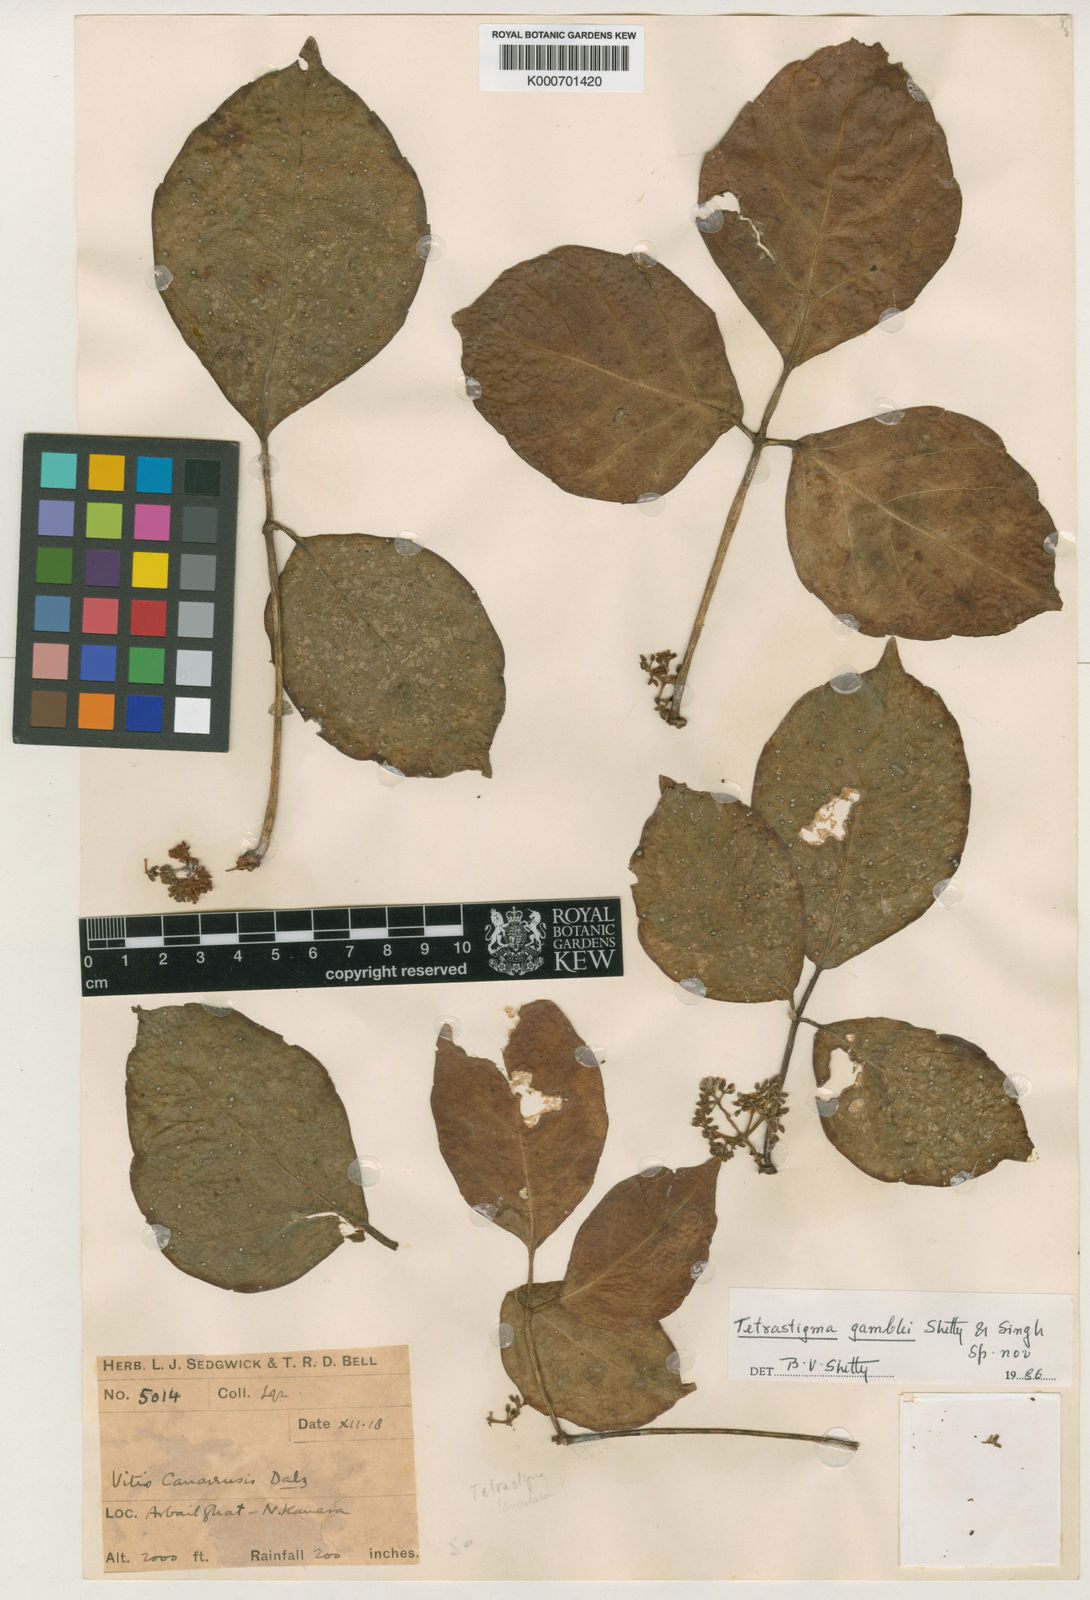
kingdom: Plantae
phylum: Tracheophyta
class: Magnoliopsida
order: Vitales
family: Vitaceae
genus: Tetrastigma
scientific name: Tetrastigma gamblei
